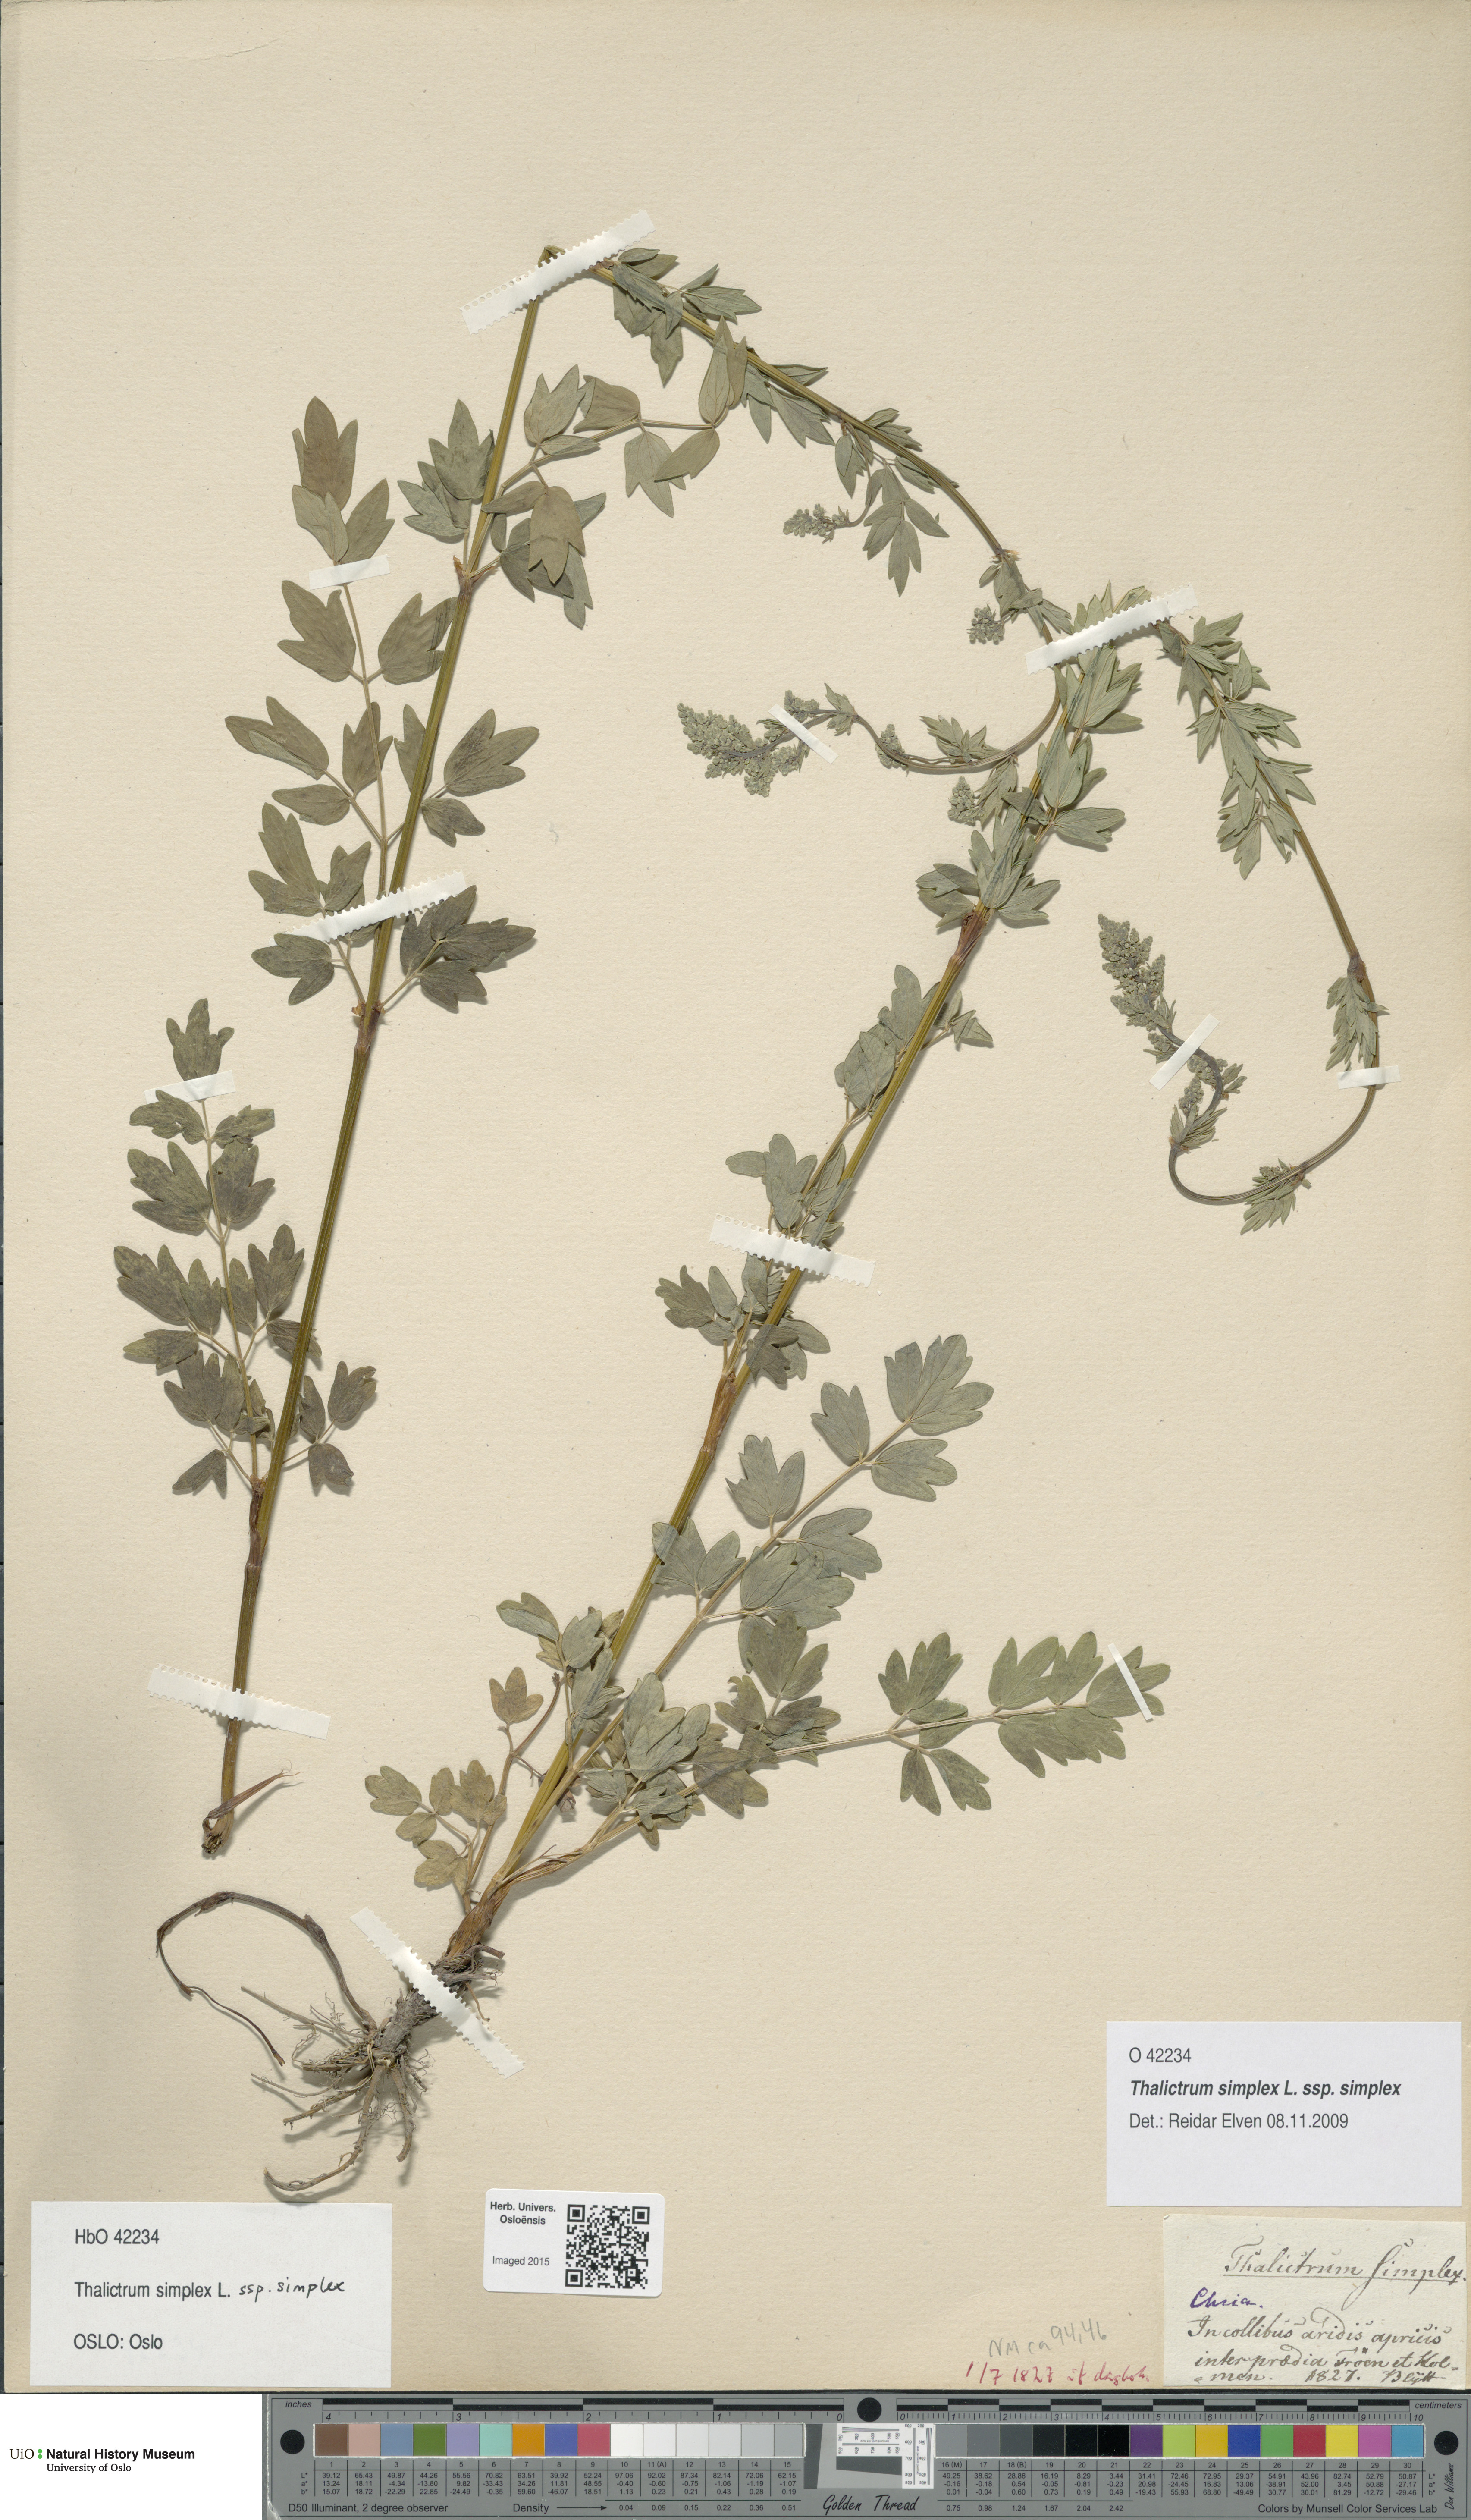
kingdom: Plantae
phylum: Tracheophyta
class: Magnoliopsida
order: Ranunculales
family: Ranunculaceae
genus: Thalictrum
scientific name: Thalictrum simplex
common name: Small meadow-rue
